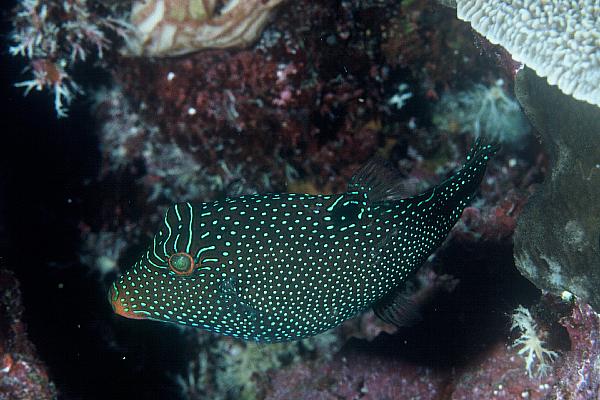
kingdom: Animalia
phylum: Chordata
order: Tetraodontiformes
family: Tetraodontidae
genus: Canthigaster
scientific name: Canthigaster papua
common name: False-eyed pufferfish
